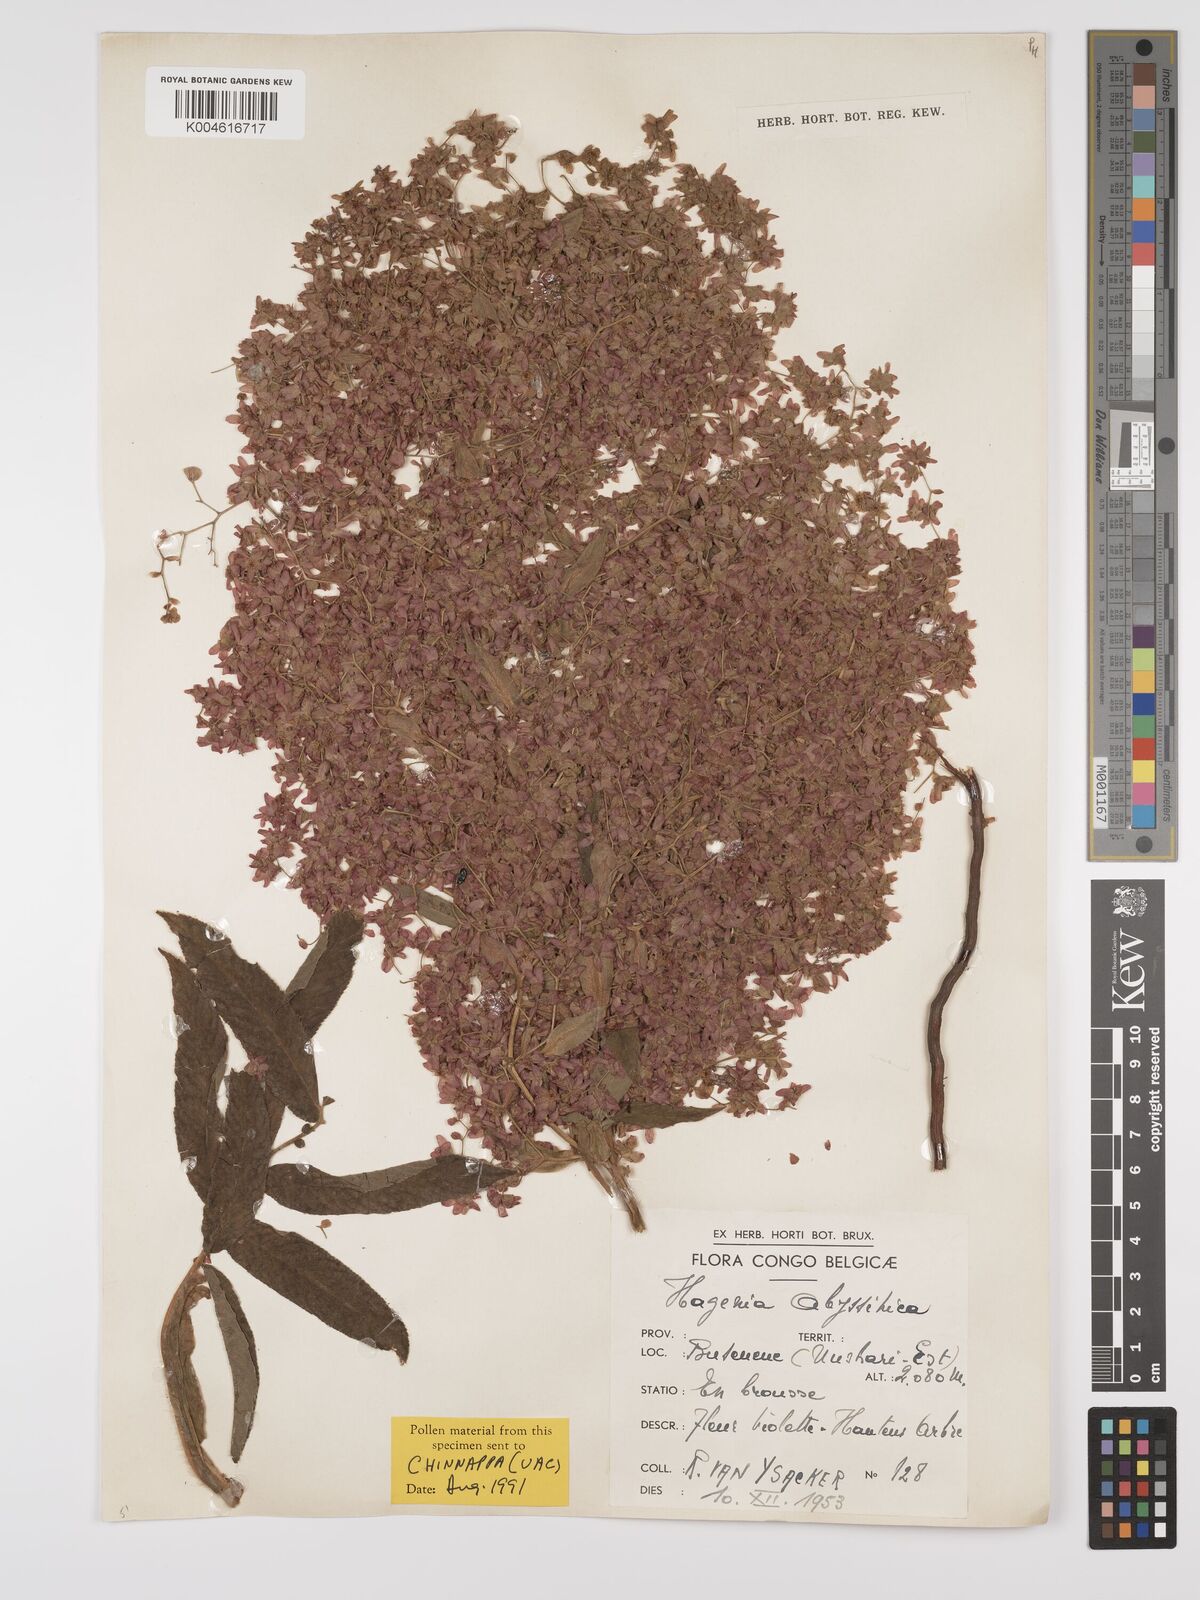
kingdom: Plantae
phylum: Tracheophyta
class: Magnoliopsida
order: Rosales
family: Rosaceae
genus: Hagenia
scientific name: Hagenia abyssinica
